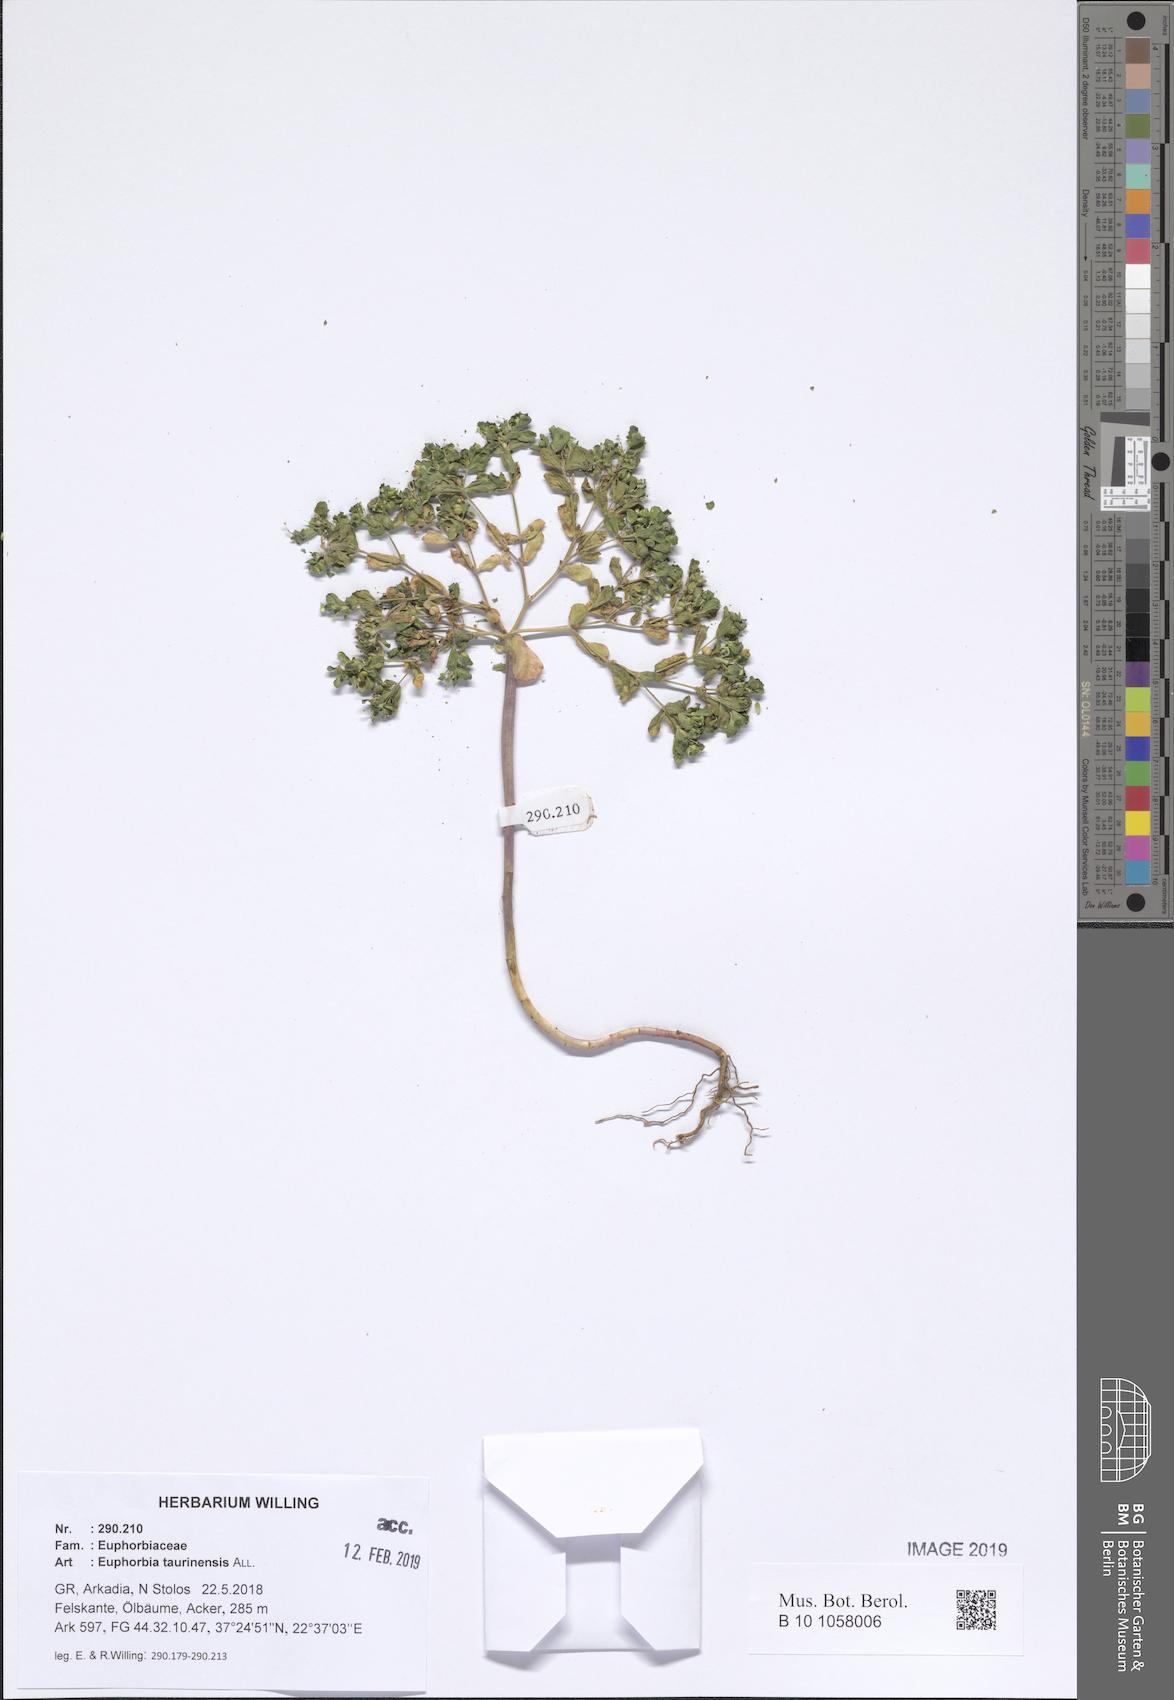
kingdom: Plantae
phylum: Tracheophyta
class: Magnoliopsida
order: Malpighiales
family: Euphorbiaceae
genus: Euphorbia
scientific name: Euphorbia taurinensis
